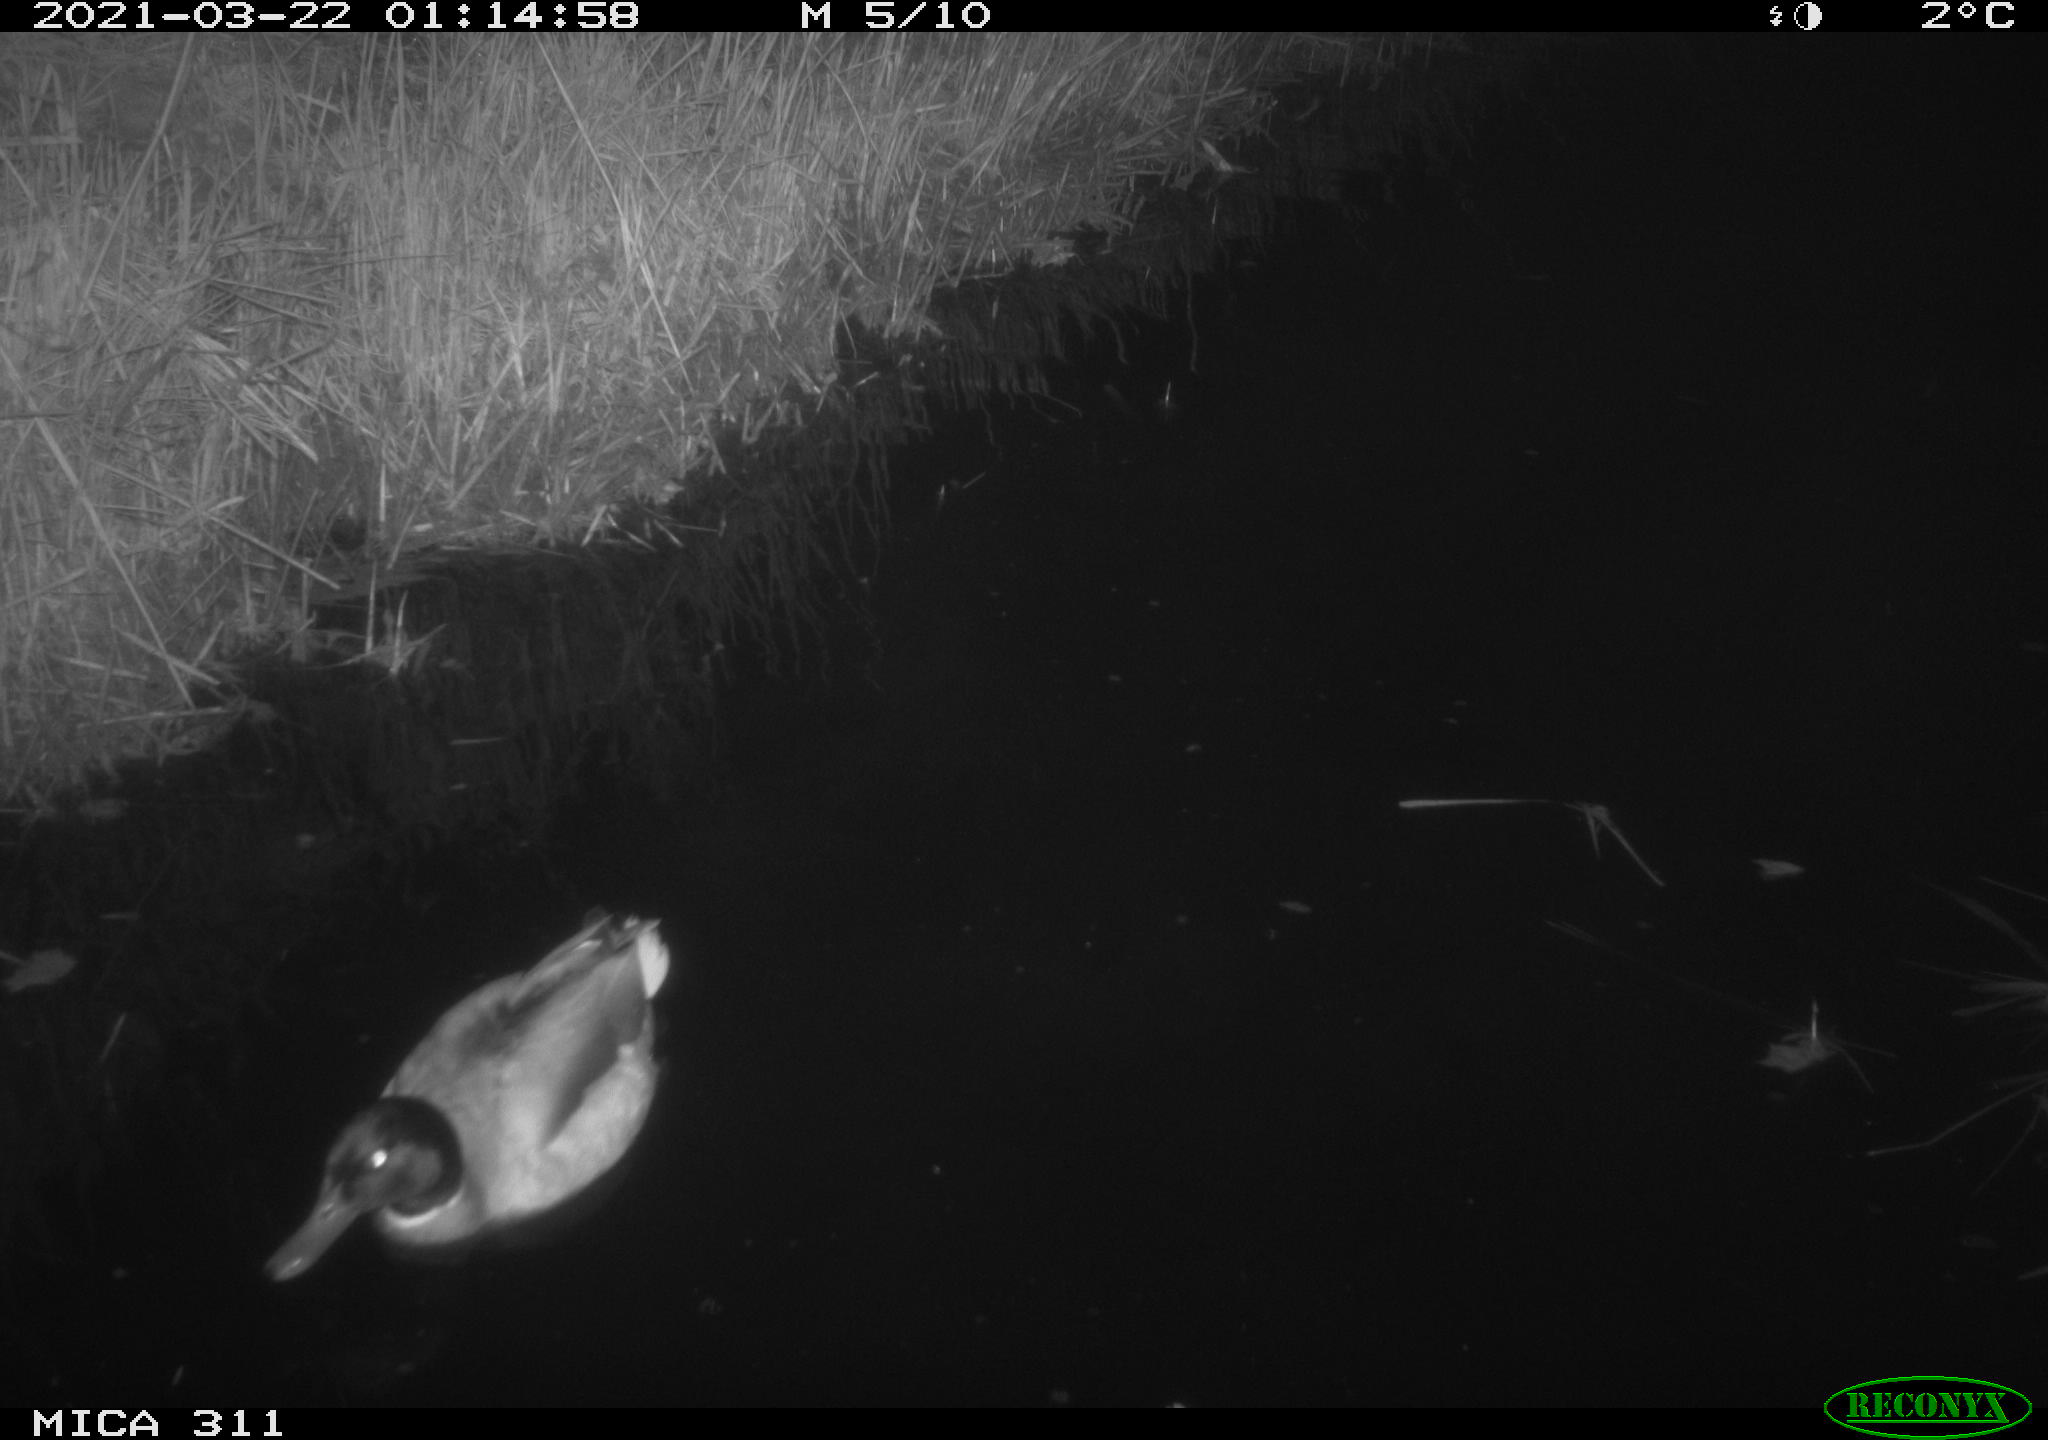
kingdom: Animalia
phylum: Chordata
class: Aves
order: Anseriformes
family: Anatidae
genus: Anas
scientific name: Anas platyrhynchos
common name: Mallard
